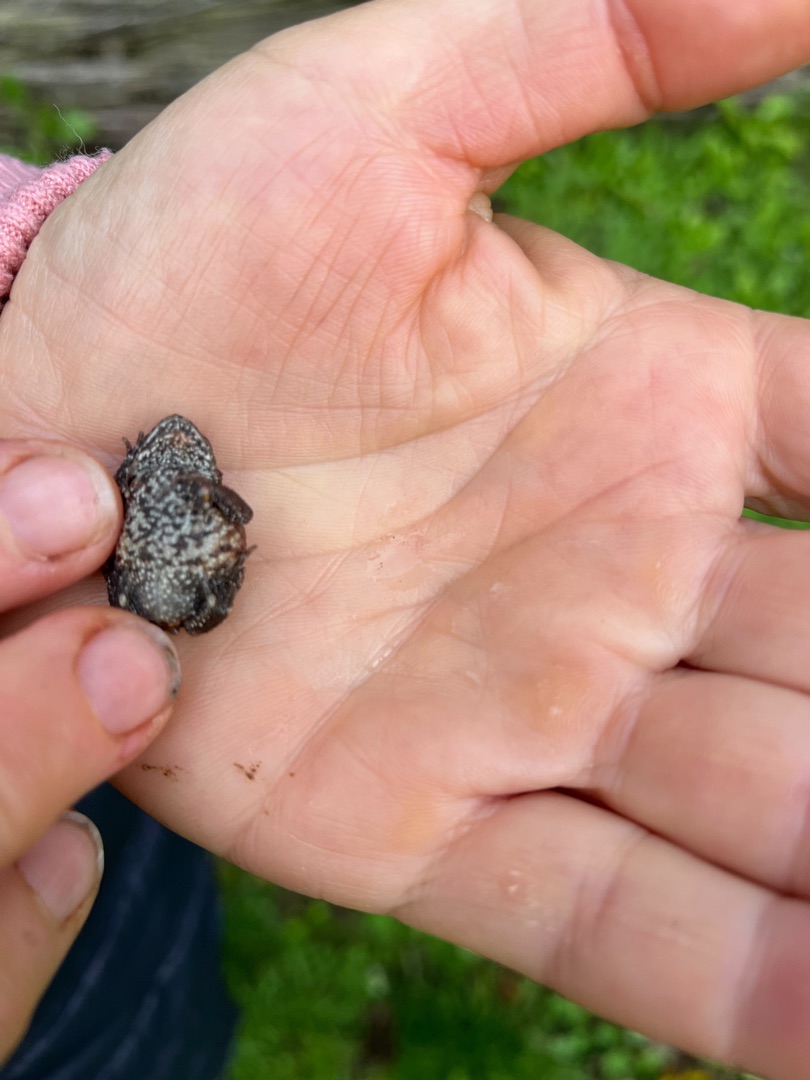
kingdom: Animalia
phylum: Chordata
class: Amphibia
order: Anura
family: Bufonidae
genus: Bufo
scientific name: Bufo bufo
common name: Skrubtudse
